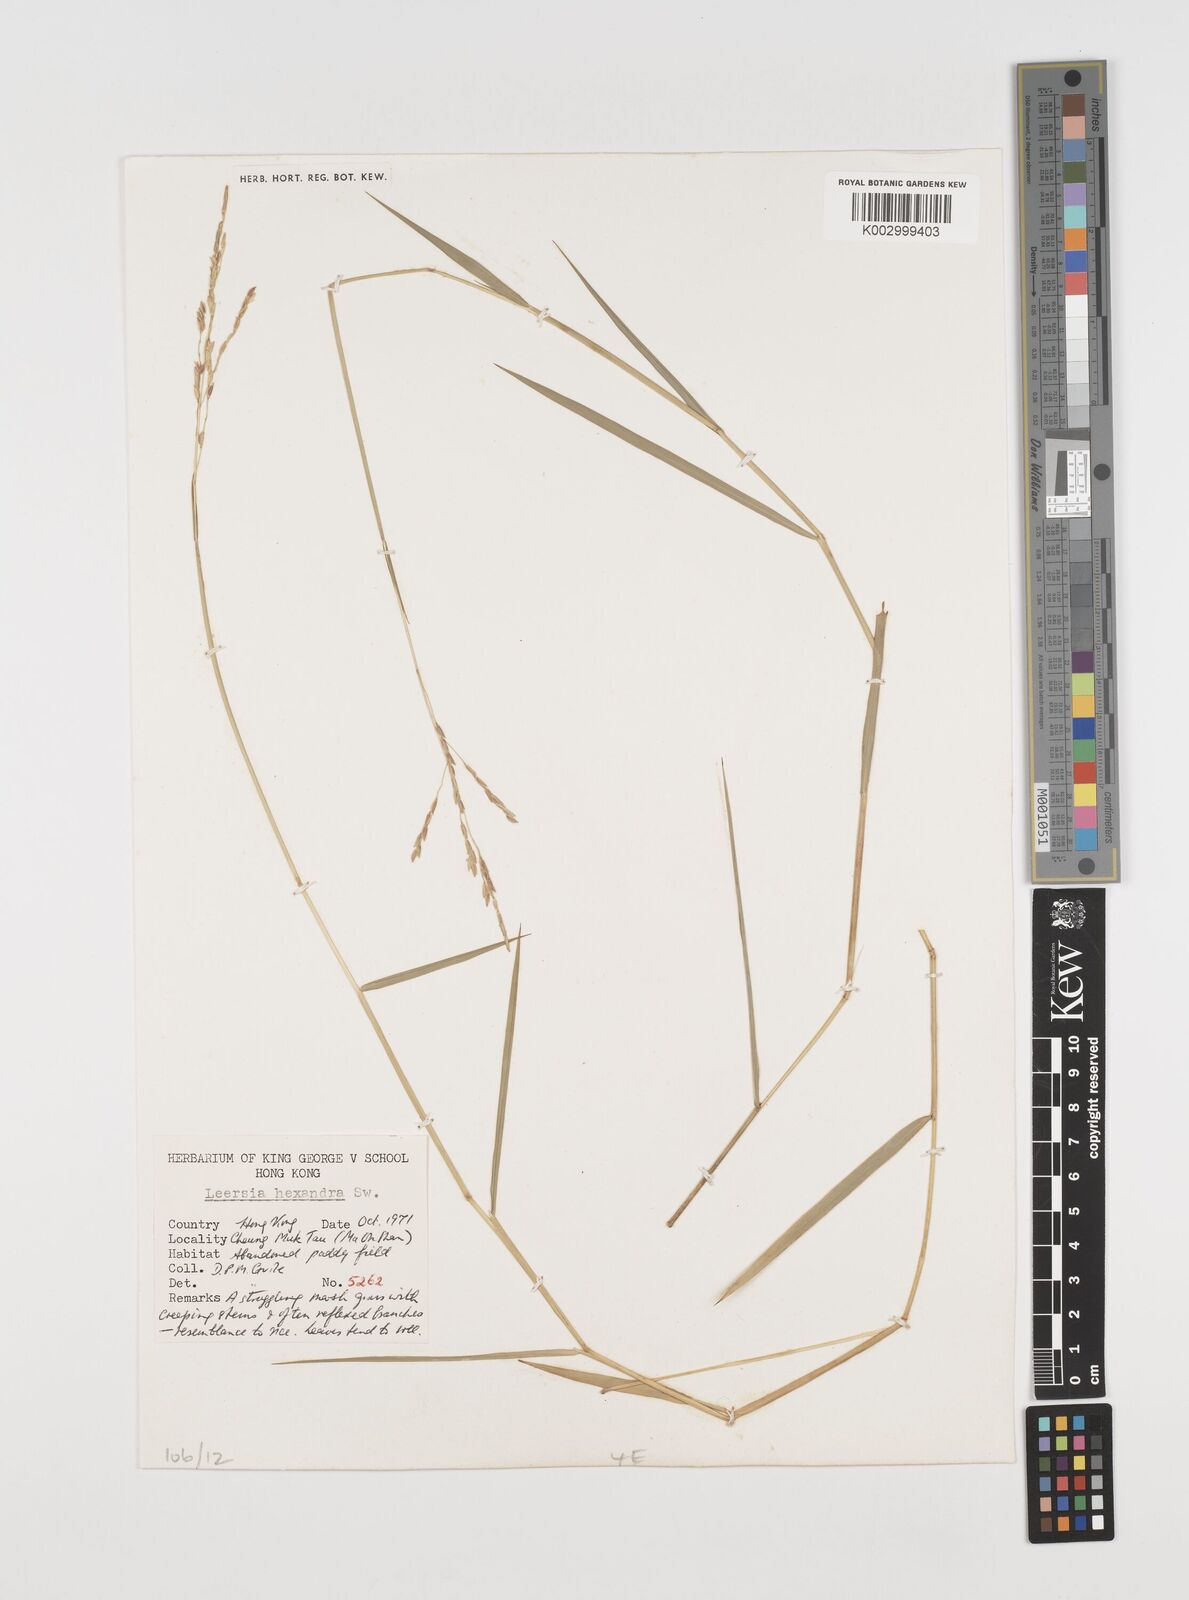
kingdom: Plantae
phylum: Tracheophyta
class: Liliopsida
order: Poales
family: Poaceae
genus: Leersia
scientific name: Leersia hexandra
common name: Southern cut grass
